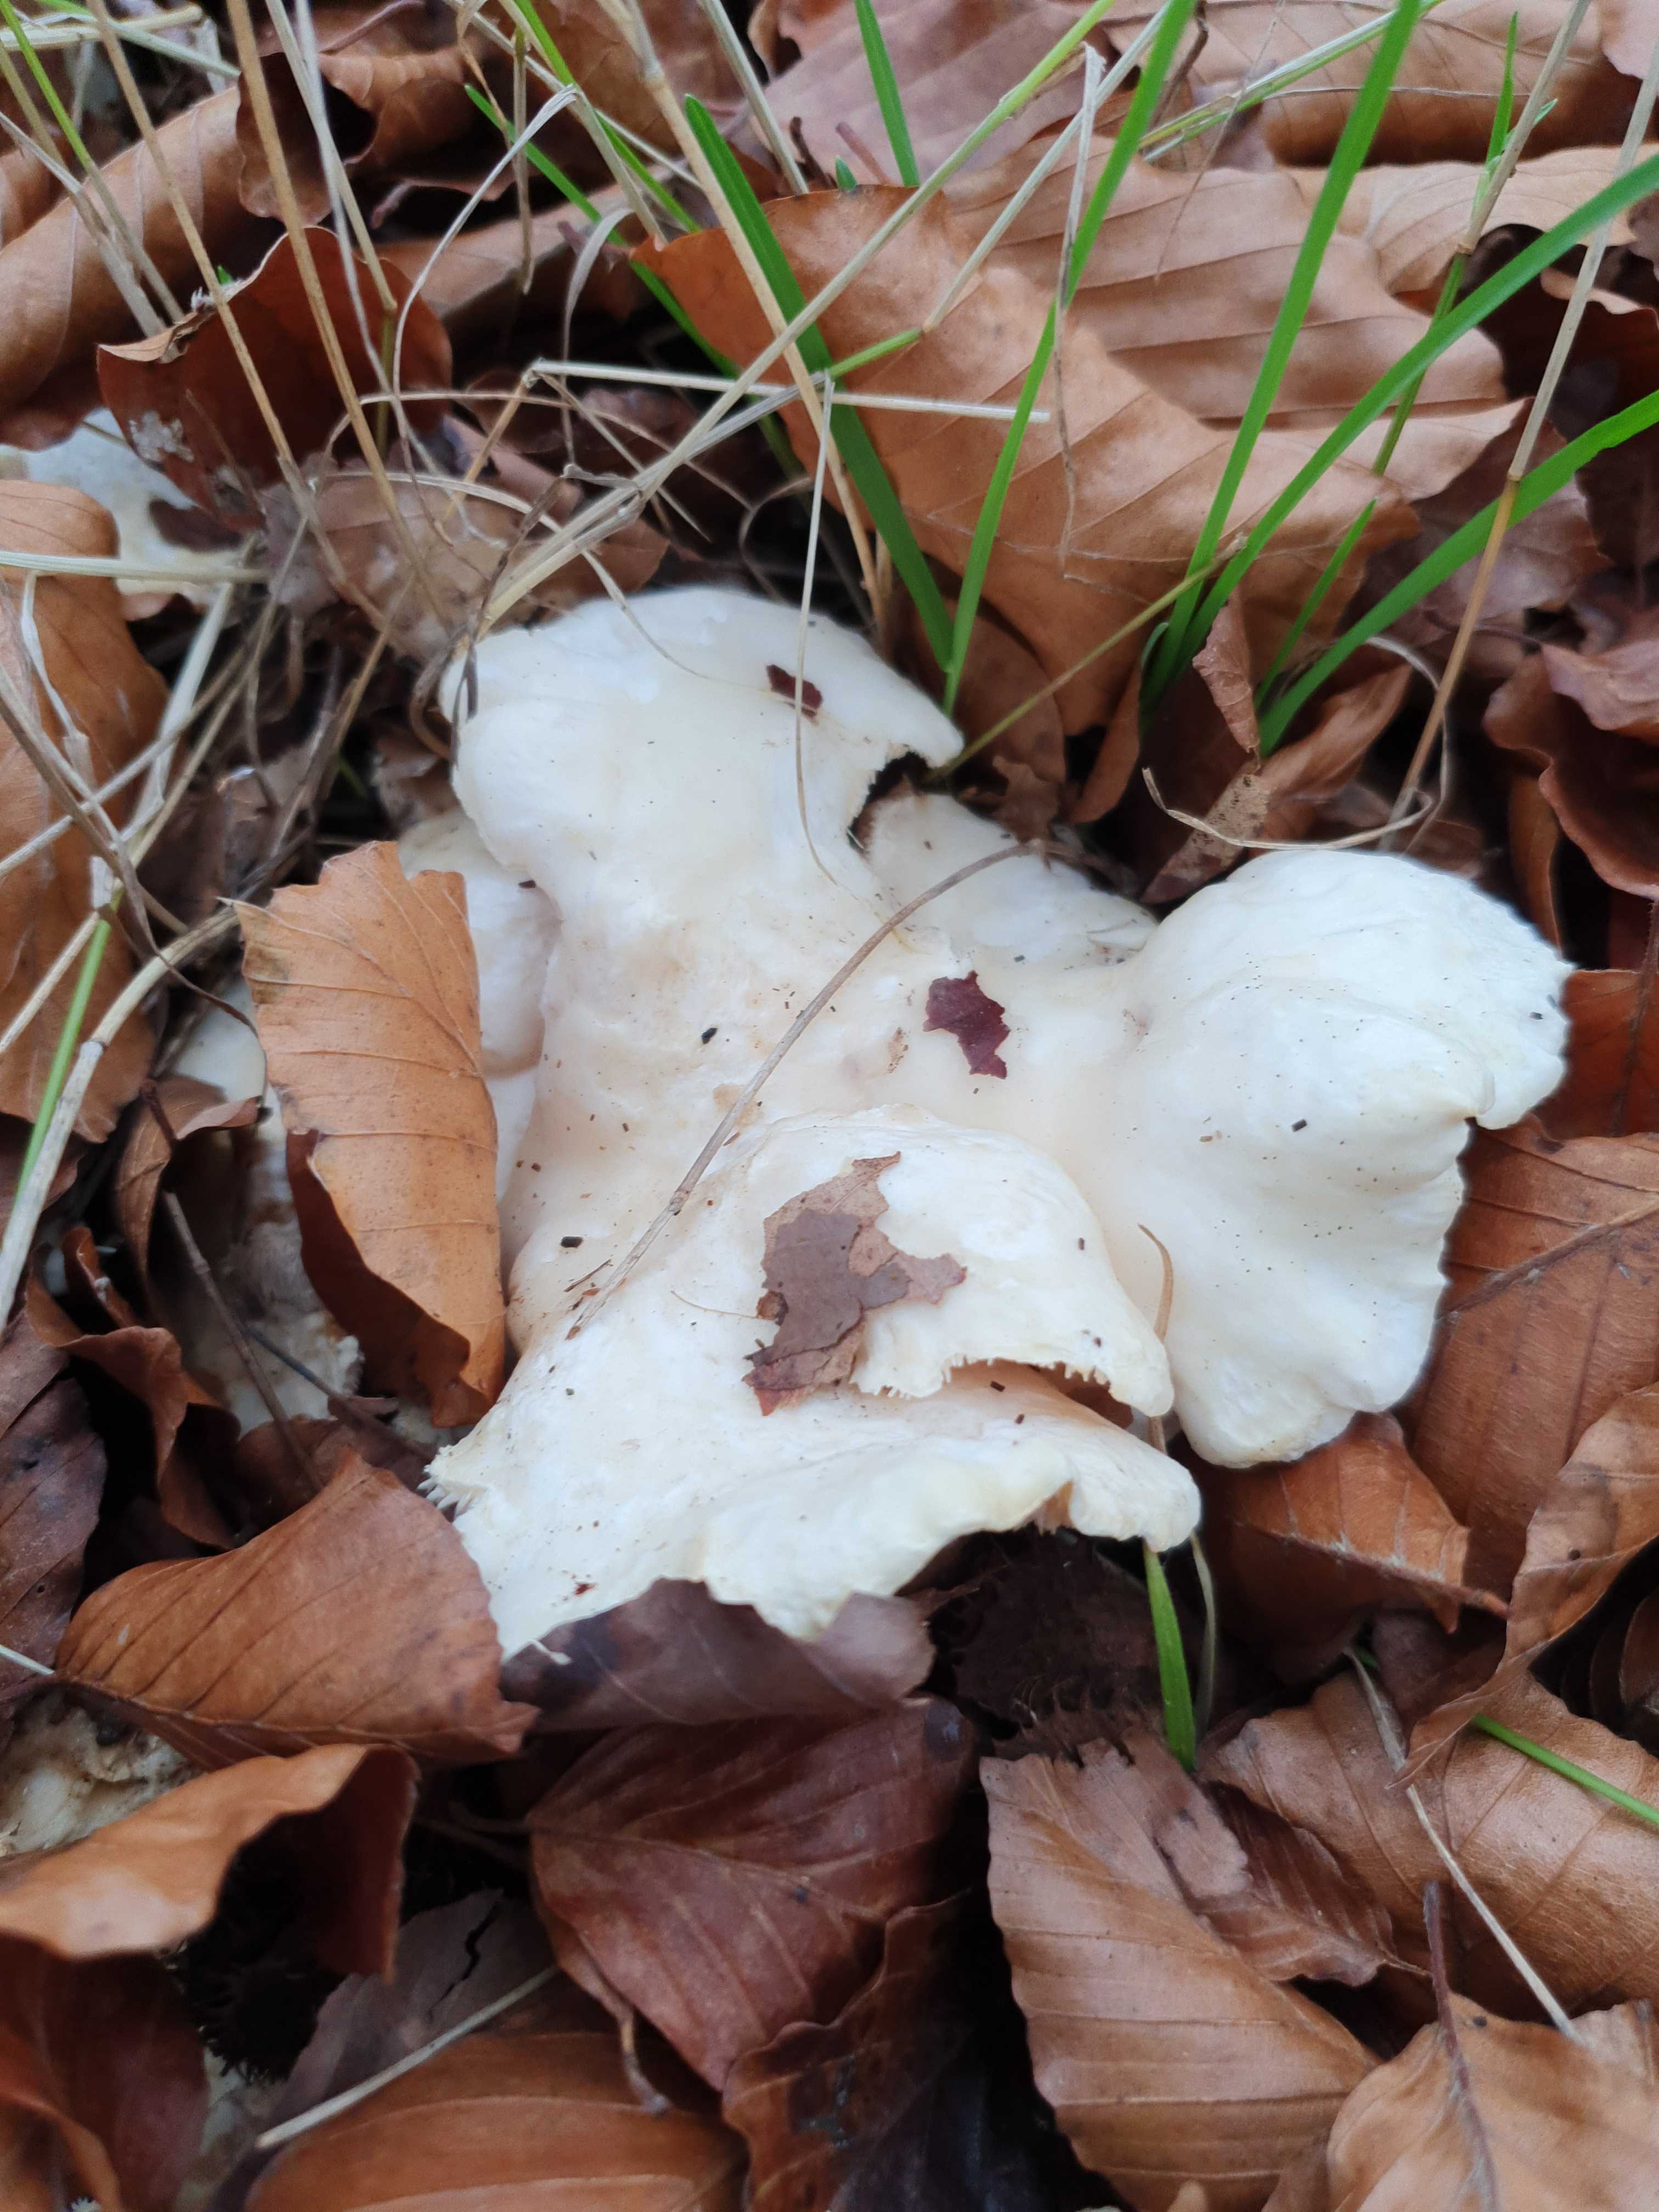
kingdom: Fungi
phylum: Basidiomycota
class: Agaricomycetes
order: Cantharellales
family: Hydnaceae
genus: Hydnum
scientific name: Hydnum repandum
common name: hvid pigsvamp
